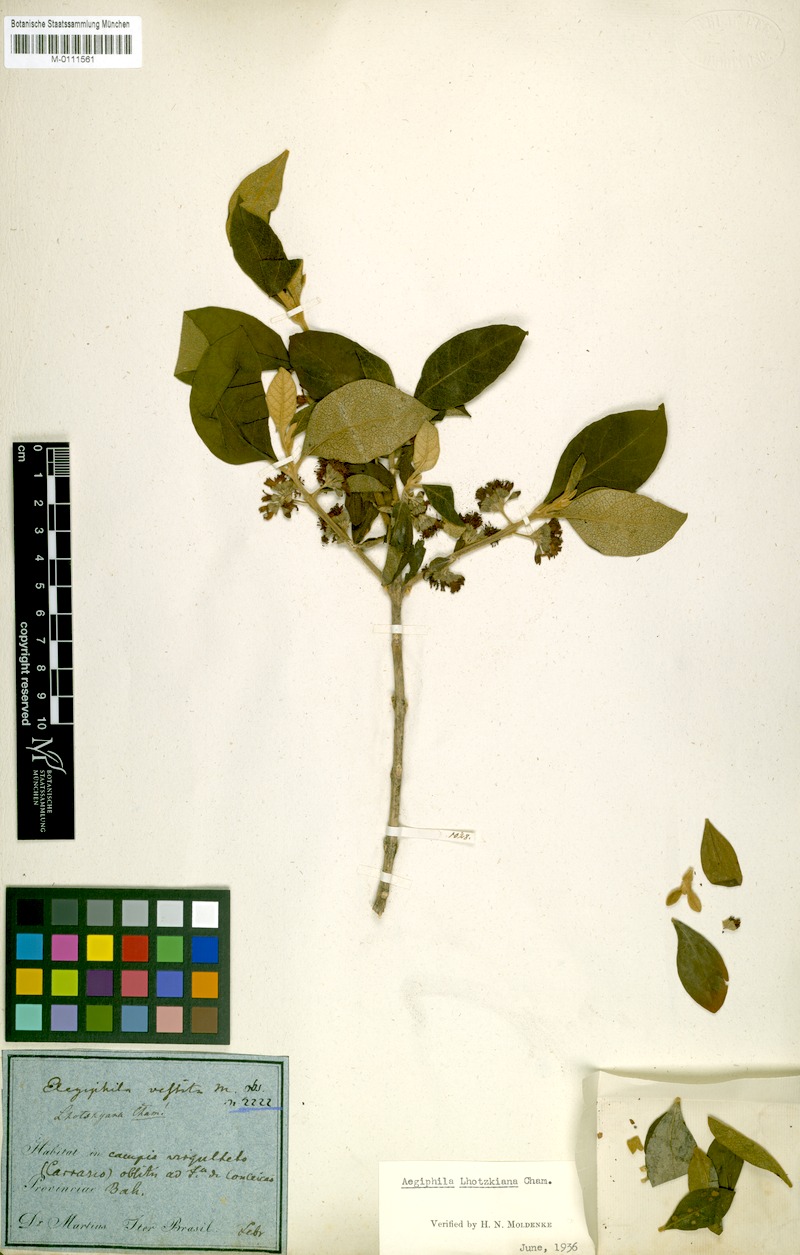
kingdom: Plantae
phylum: Tracheophyta
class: Magnoliopsida
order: Lamiales
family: Lamiaceae
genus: Aegiphila
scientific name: Aegiphila lhotskiana
